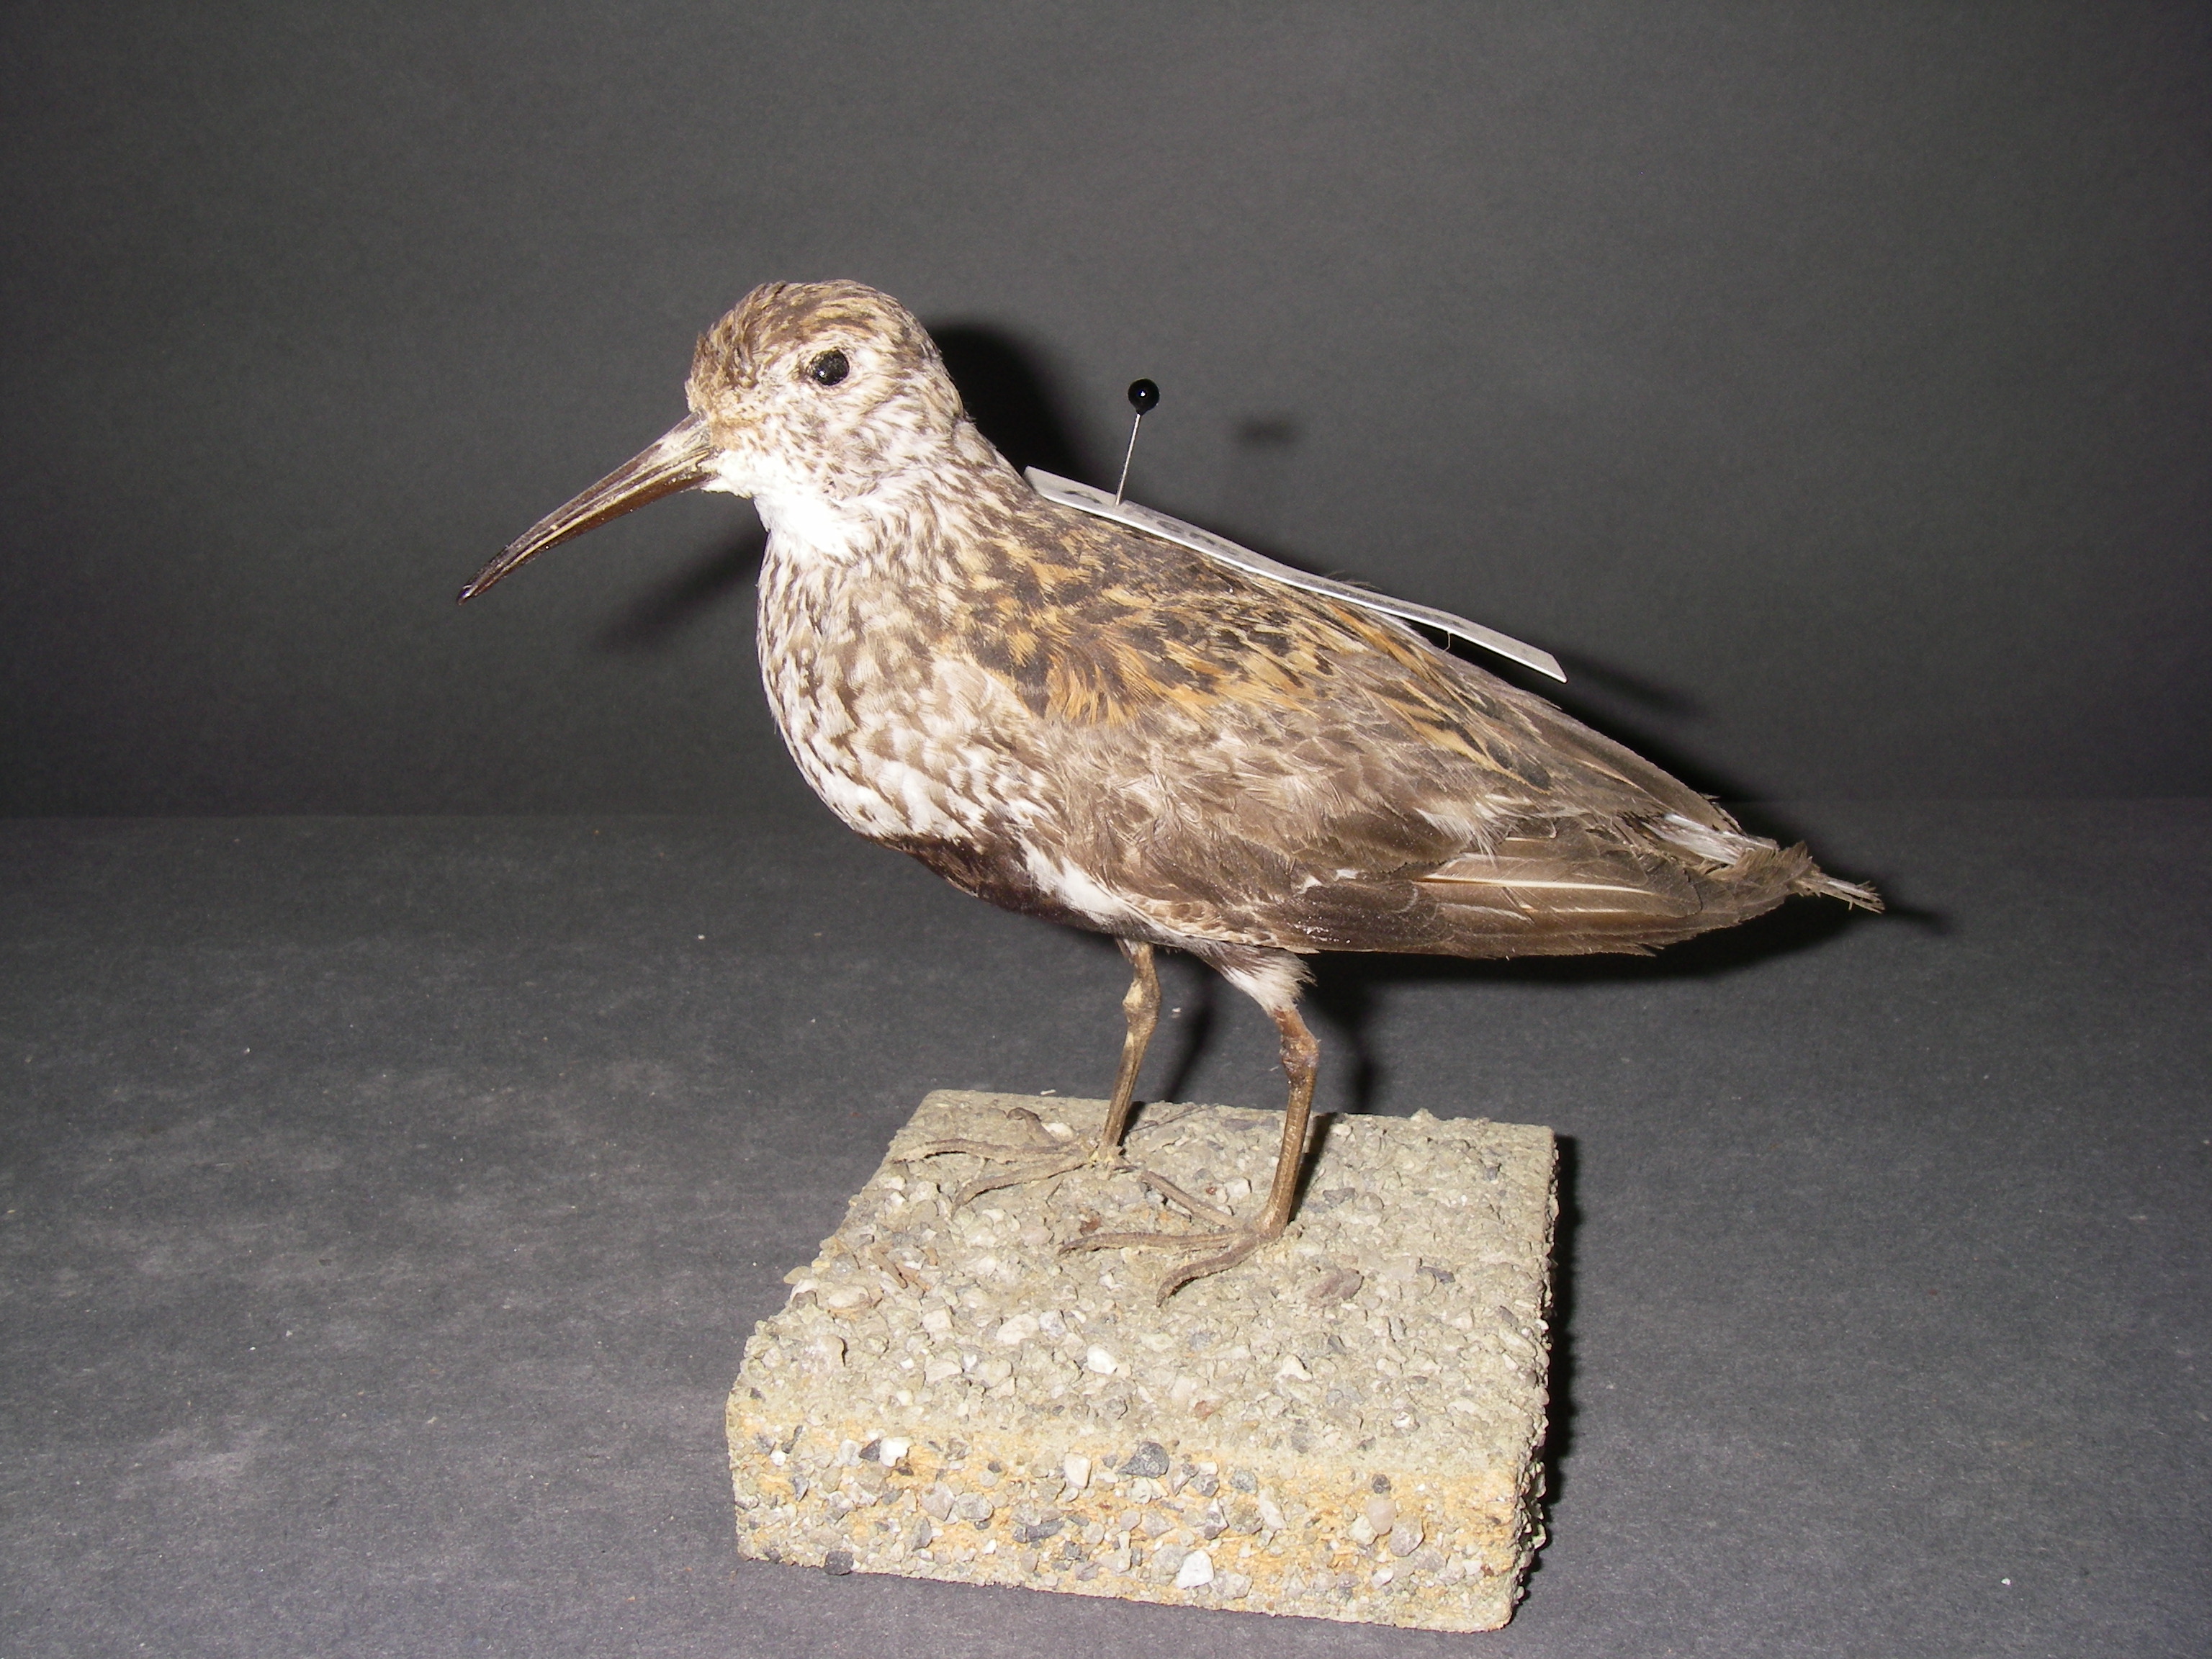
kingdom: Animalia
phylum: Chordata
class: Aves
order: Charadriiformes
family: Scolopacidae
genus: Calidris
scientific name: Calidris alpina
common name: Dunlin
